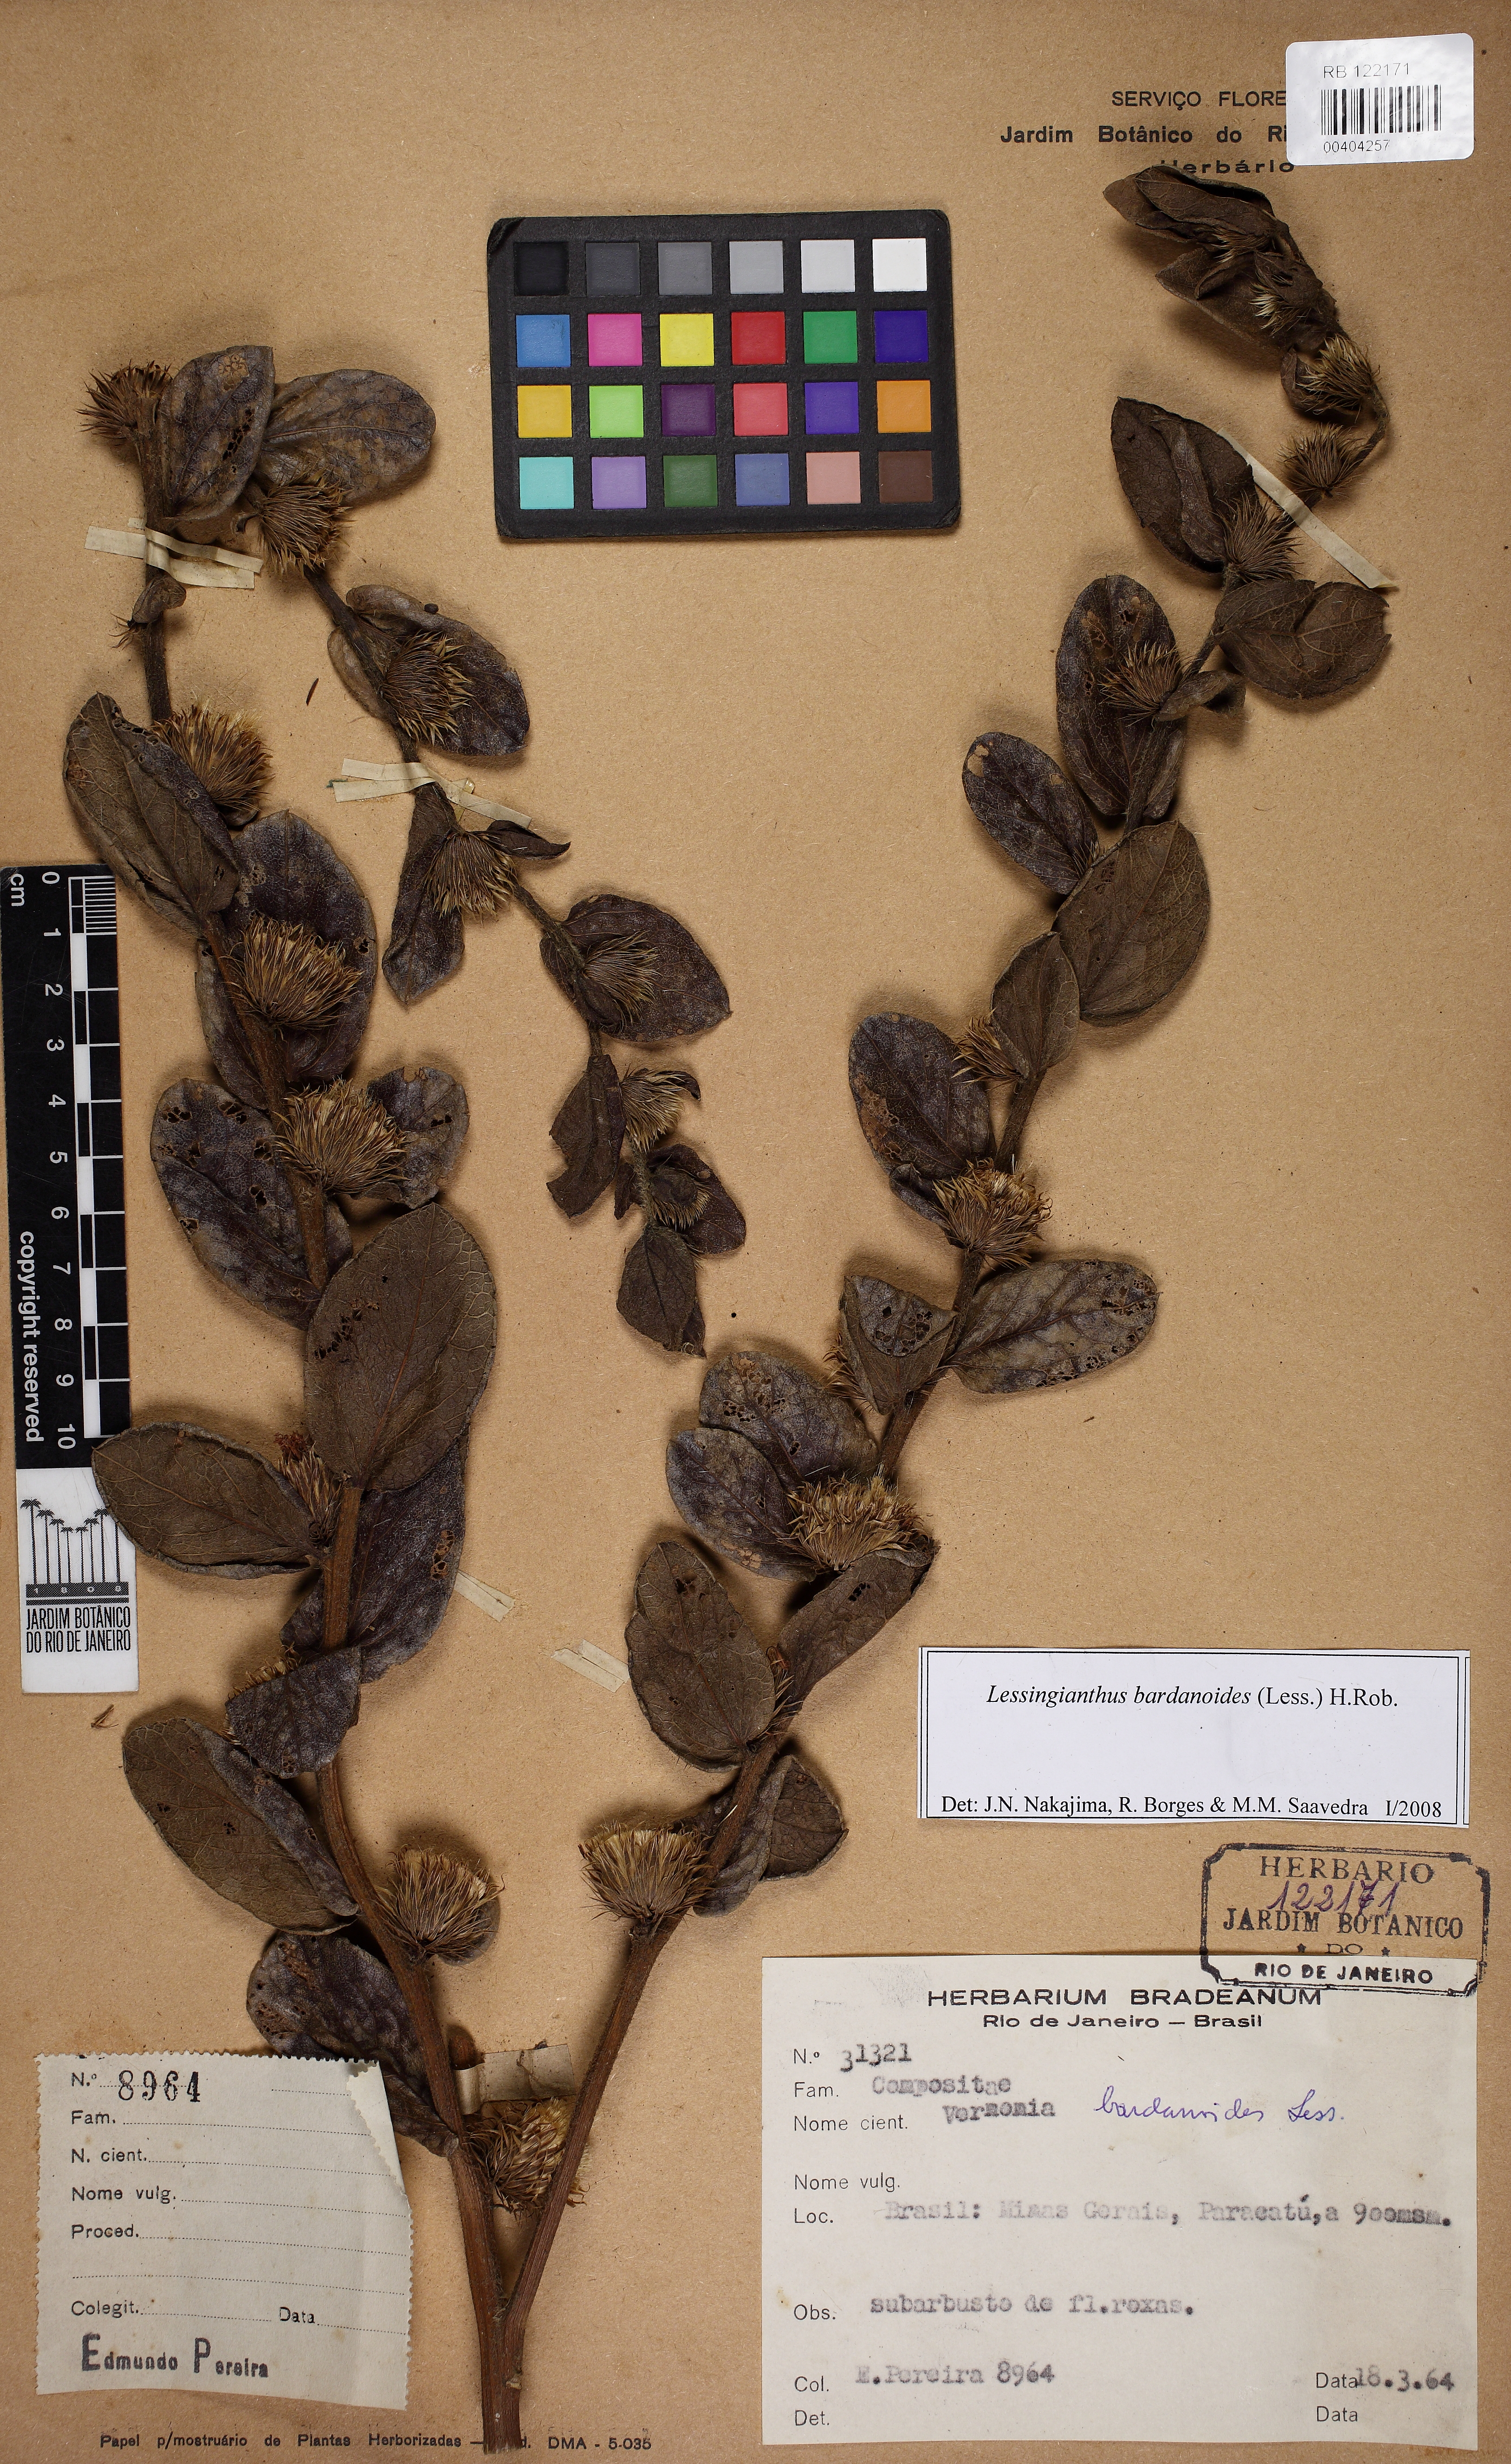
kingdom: Plantae
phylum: Tracheophyta
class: Magnoliopsida
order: Asterales
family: Asteraceae
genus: Lessingianthus
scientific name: Lessingianthus bardanioides
